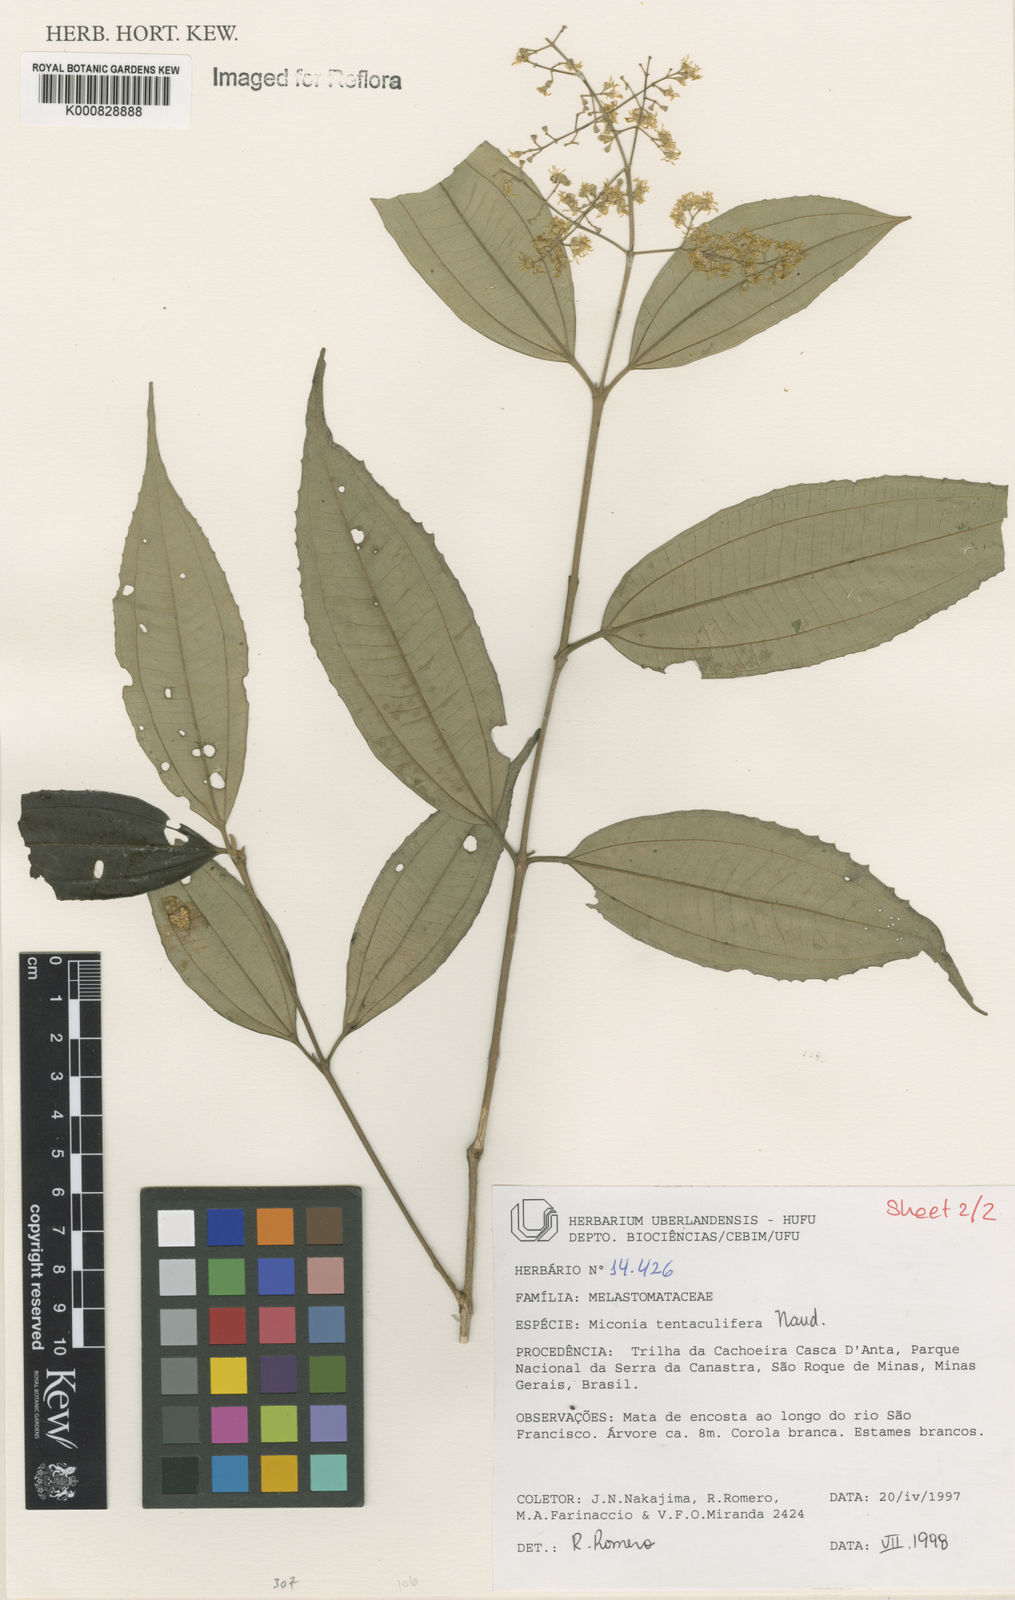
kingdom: Plantae
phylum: Tracheophyta
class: Magnoliopsida
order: Myrtales
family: Melastomataceae
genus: Miconia
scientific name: Miconia tentaculifera
